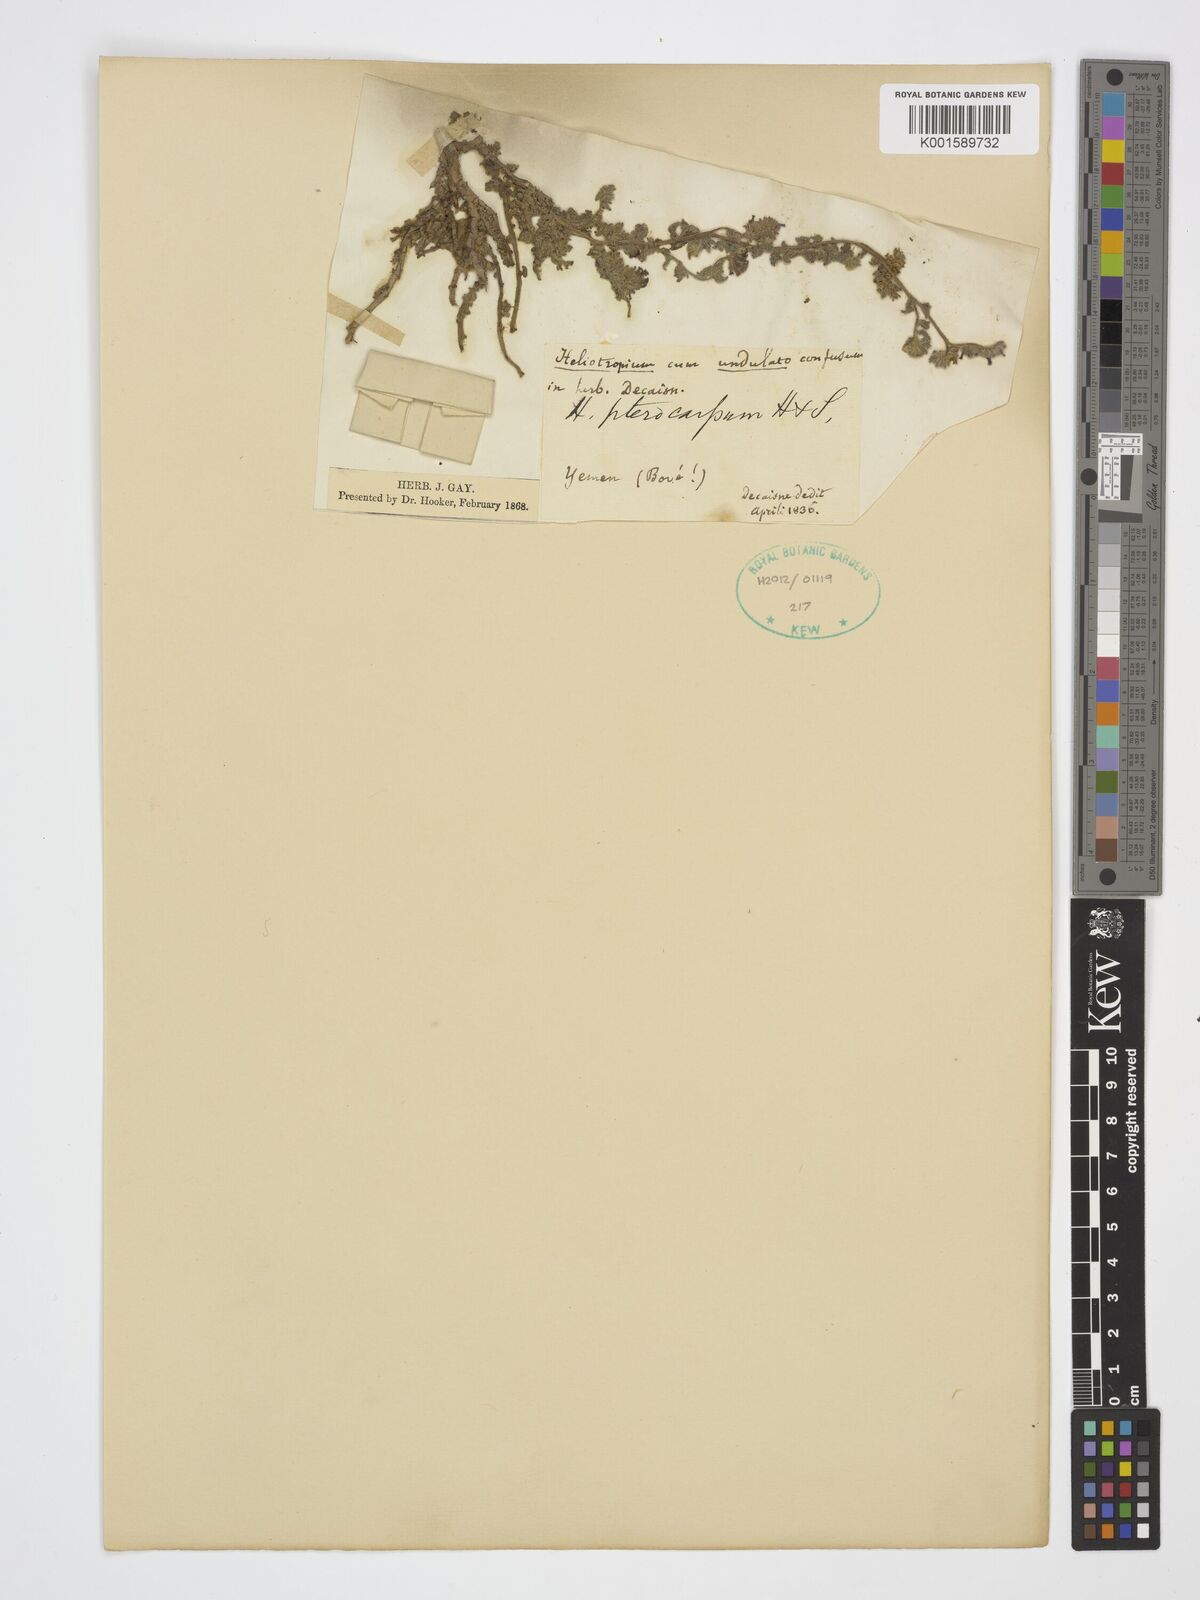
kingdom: Plantae
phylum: Tracheophyta
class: Magnoliopsida
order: Boraginales
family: Heliotropiaceae
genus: Heliotropium
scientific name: Heliotropium
